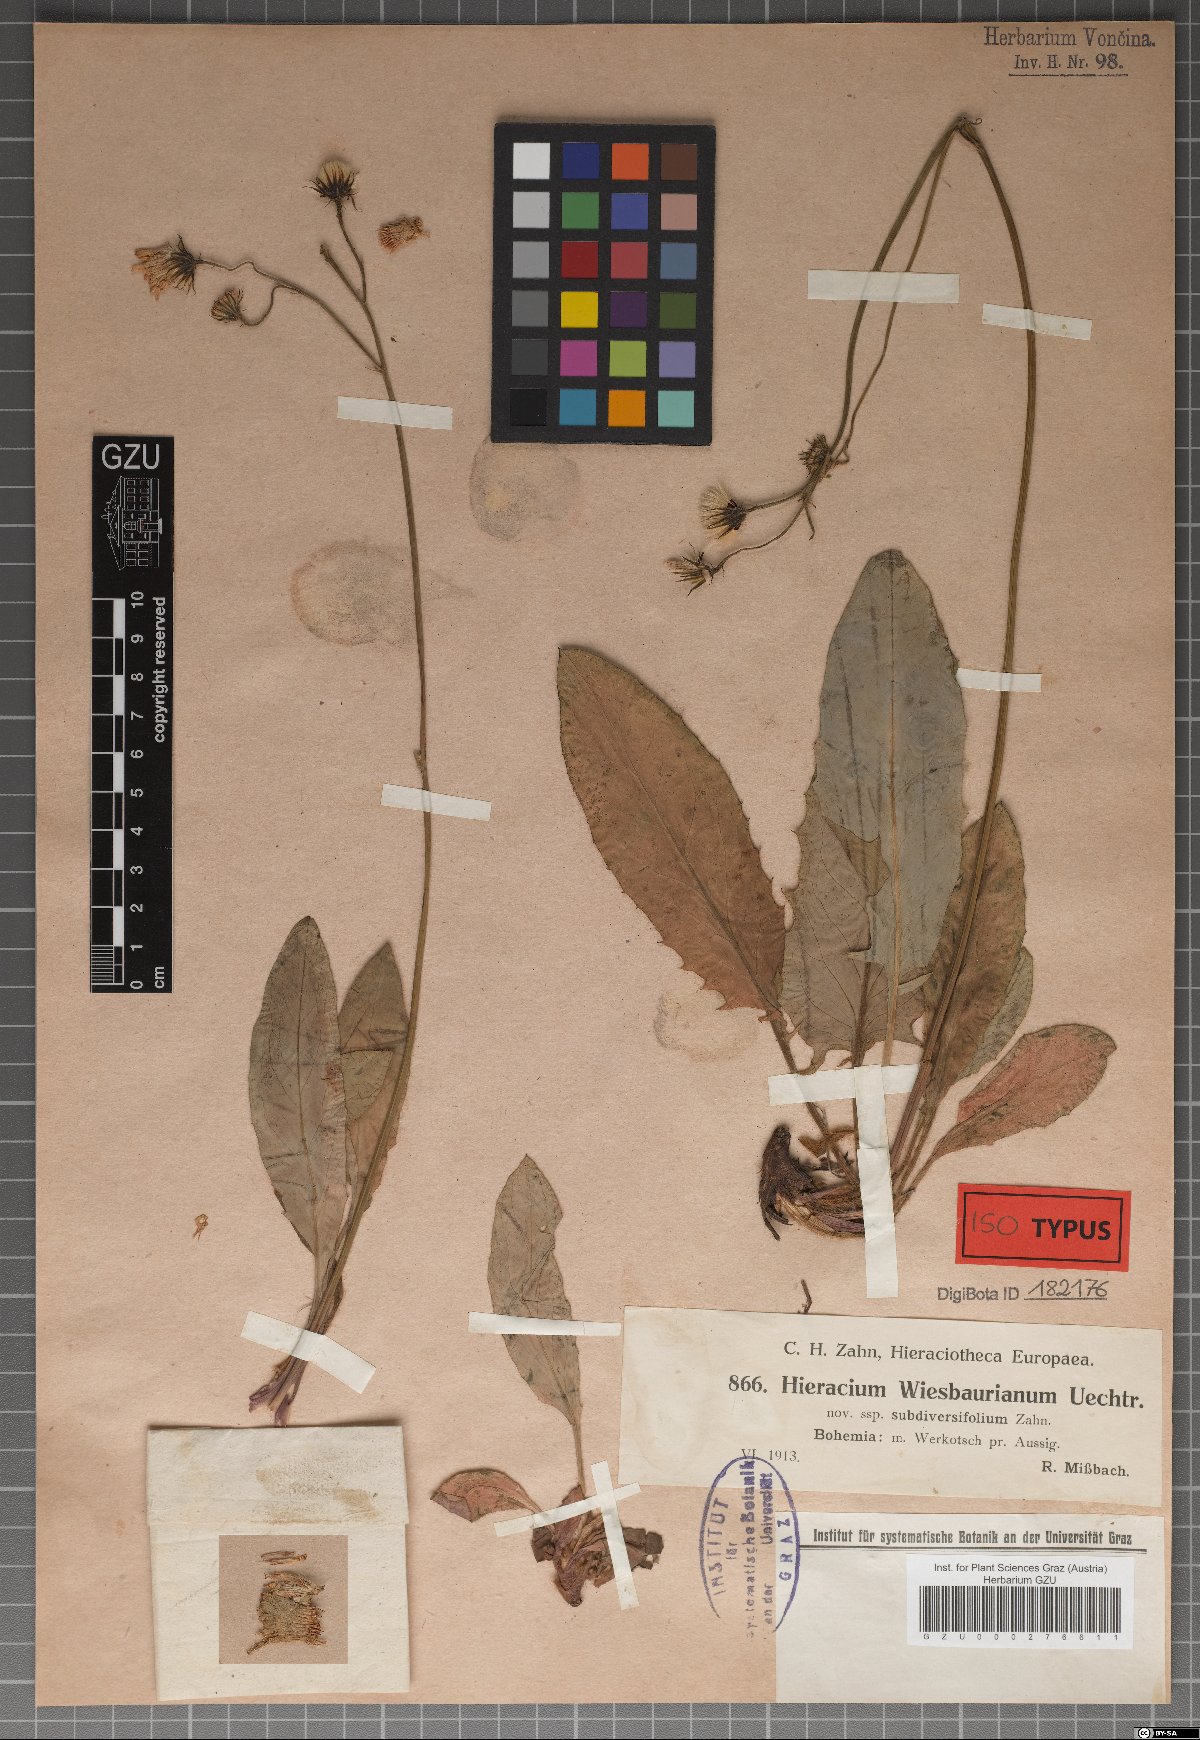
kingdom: Plantae
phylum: Tracheophyta
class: Magnoliopsida
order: Asterales
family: Asteraceae
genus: Hieracium
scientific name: Hieracium hypochoeroides
